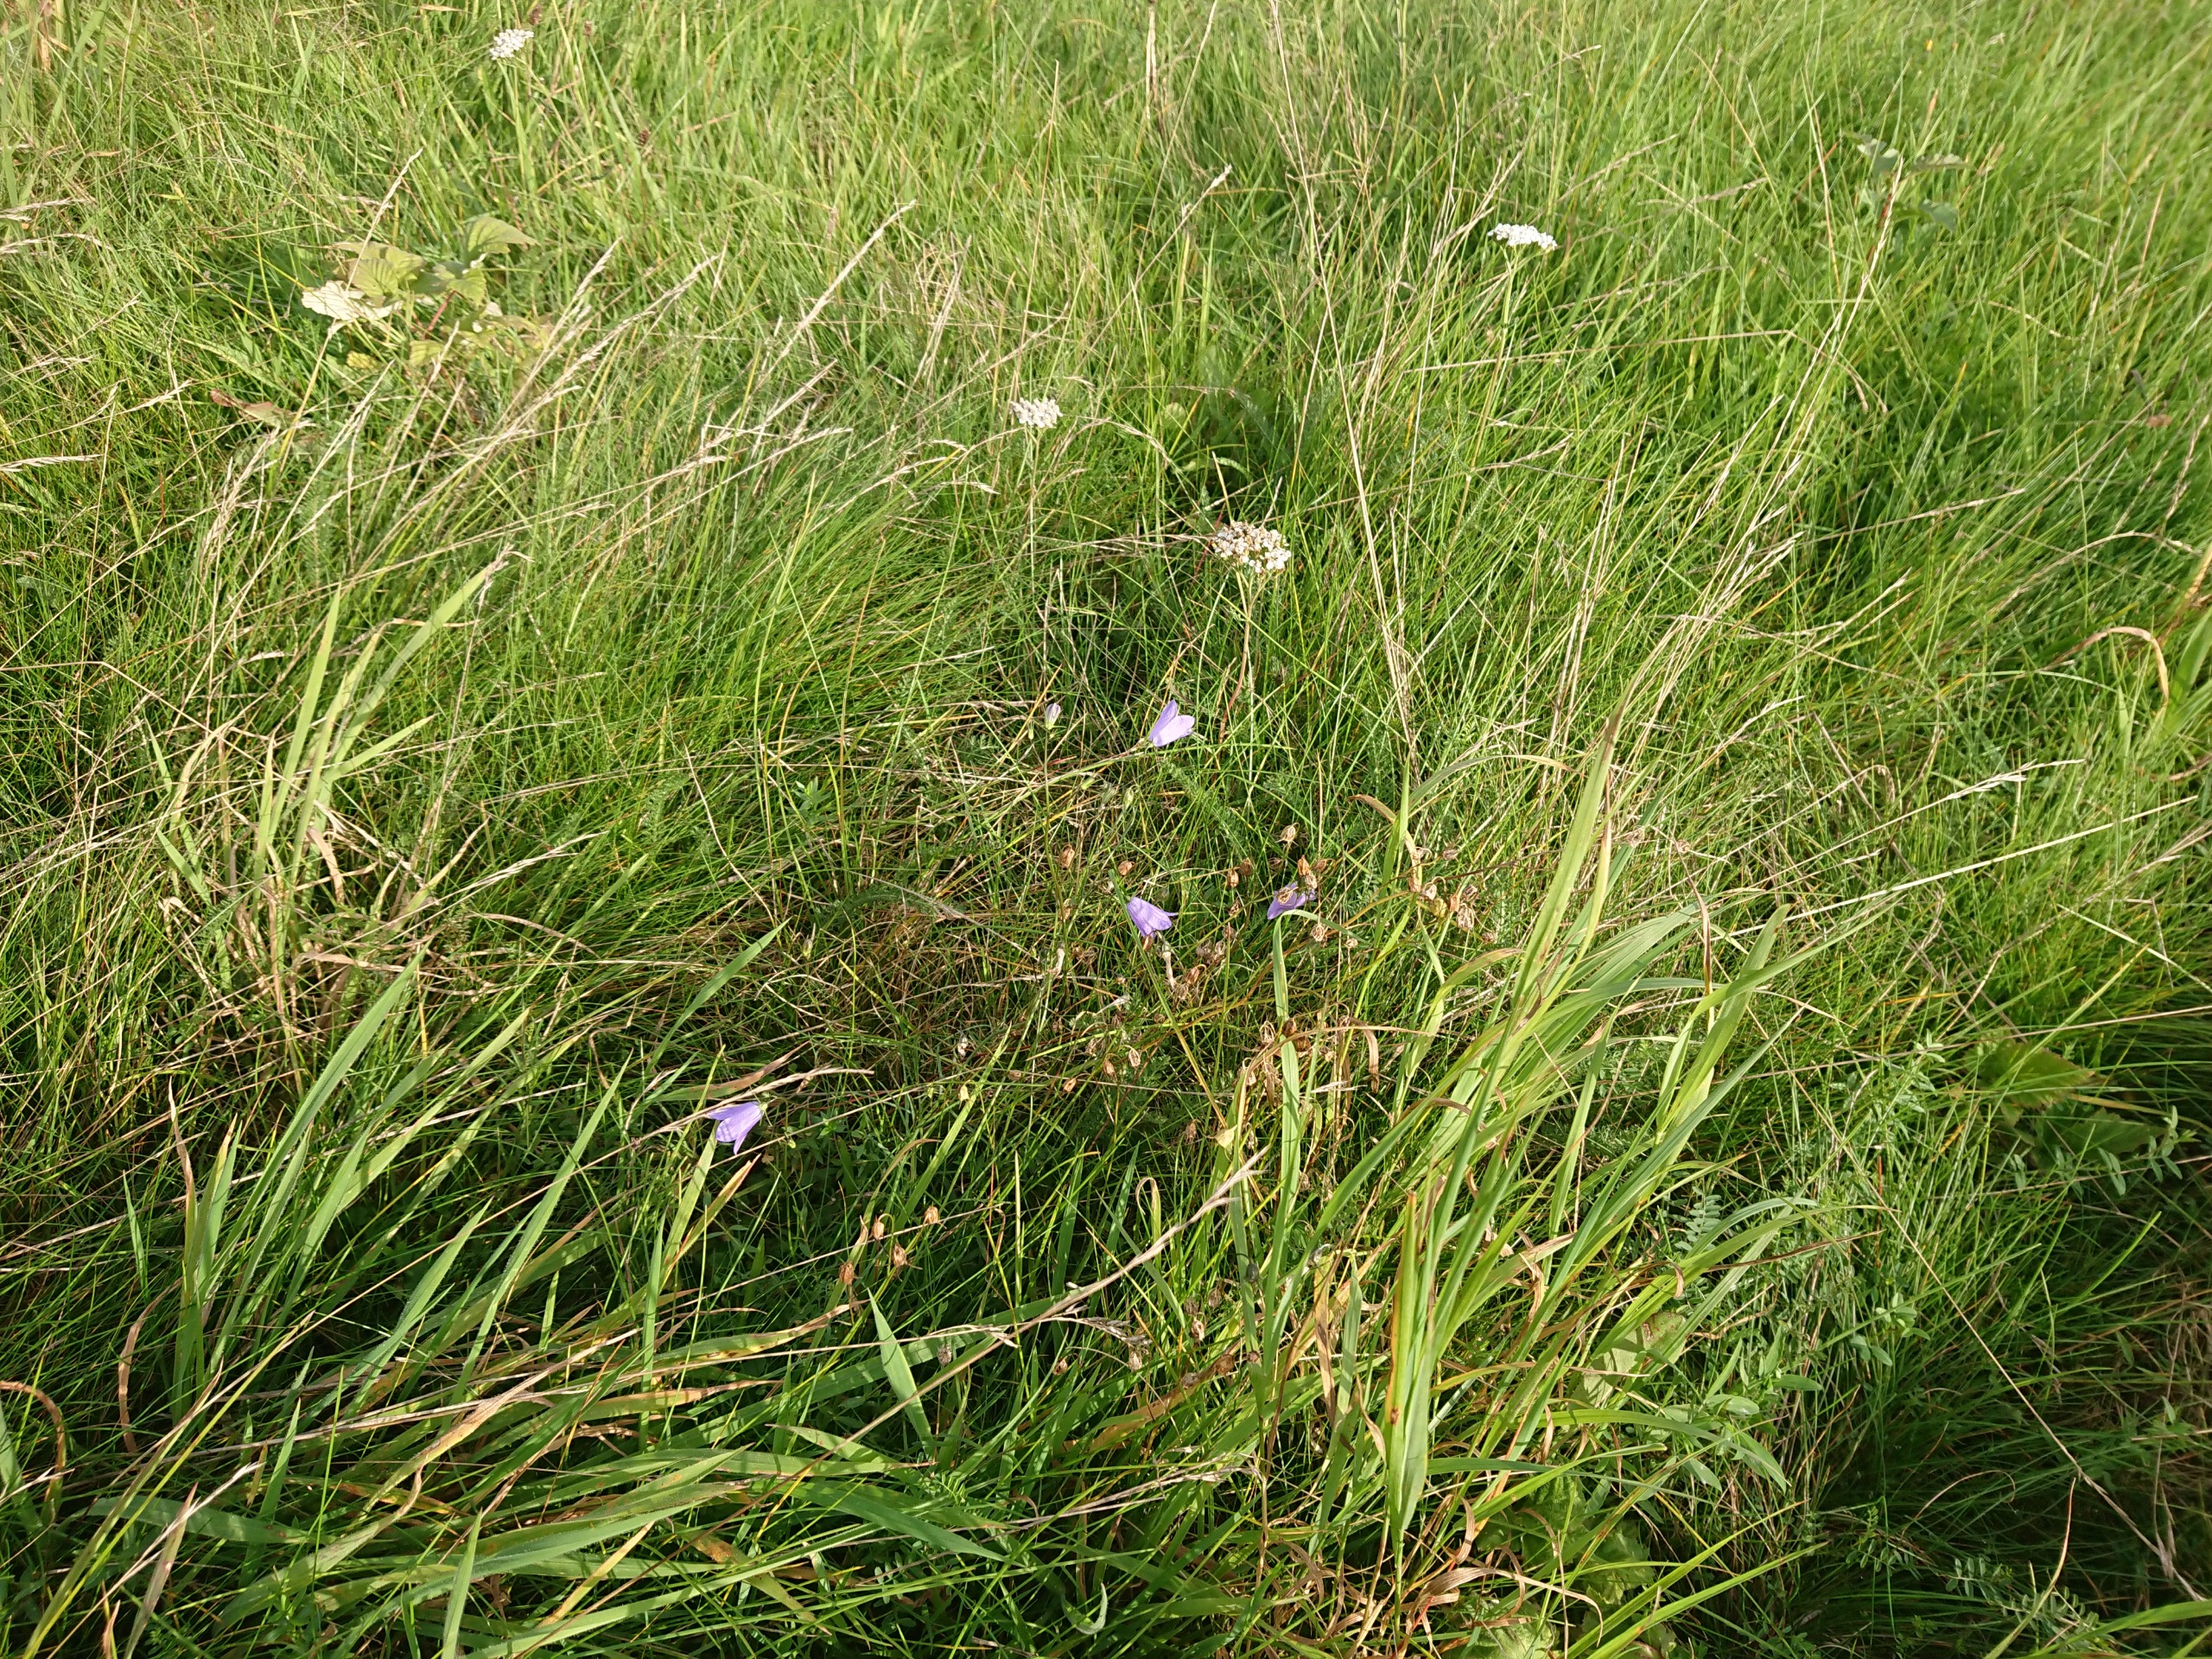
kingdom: Plantae
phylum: Tracheophyta
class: Magnoliopsida
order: Asterales
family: Campanulaceae
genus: Campanula
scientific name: Campanula rotundifolia
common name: Liden klokke
